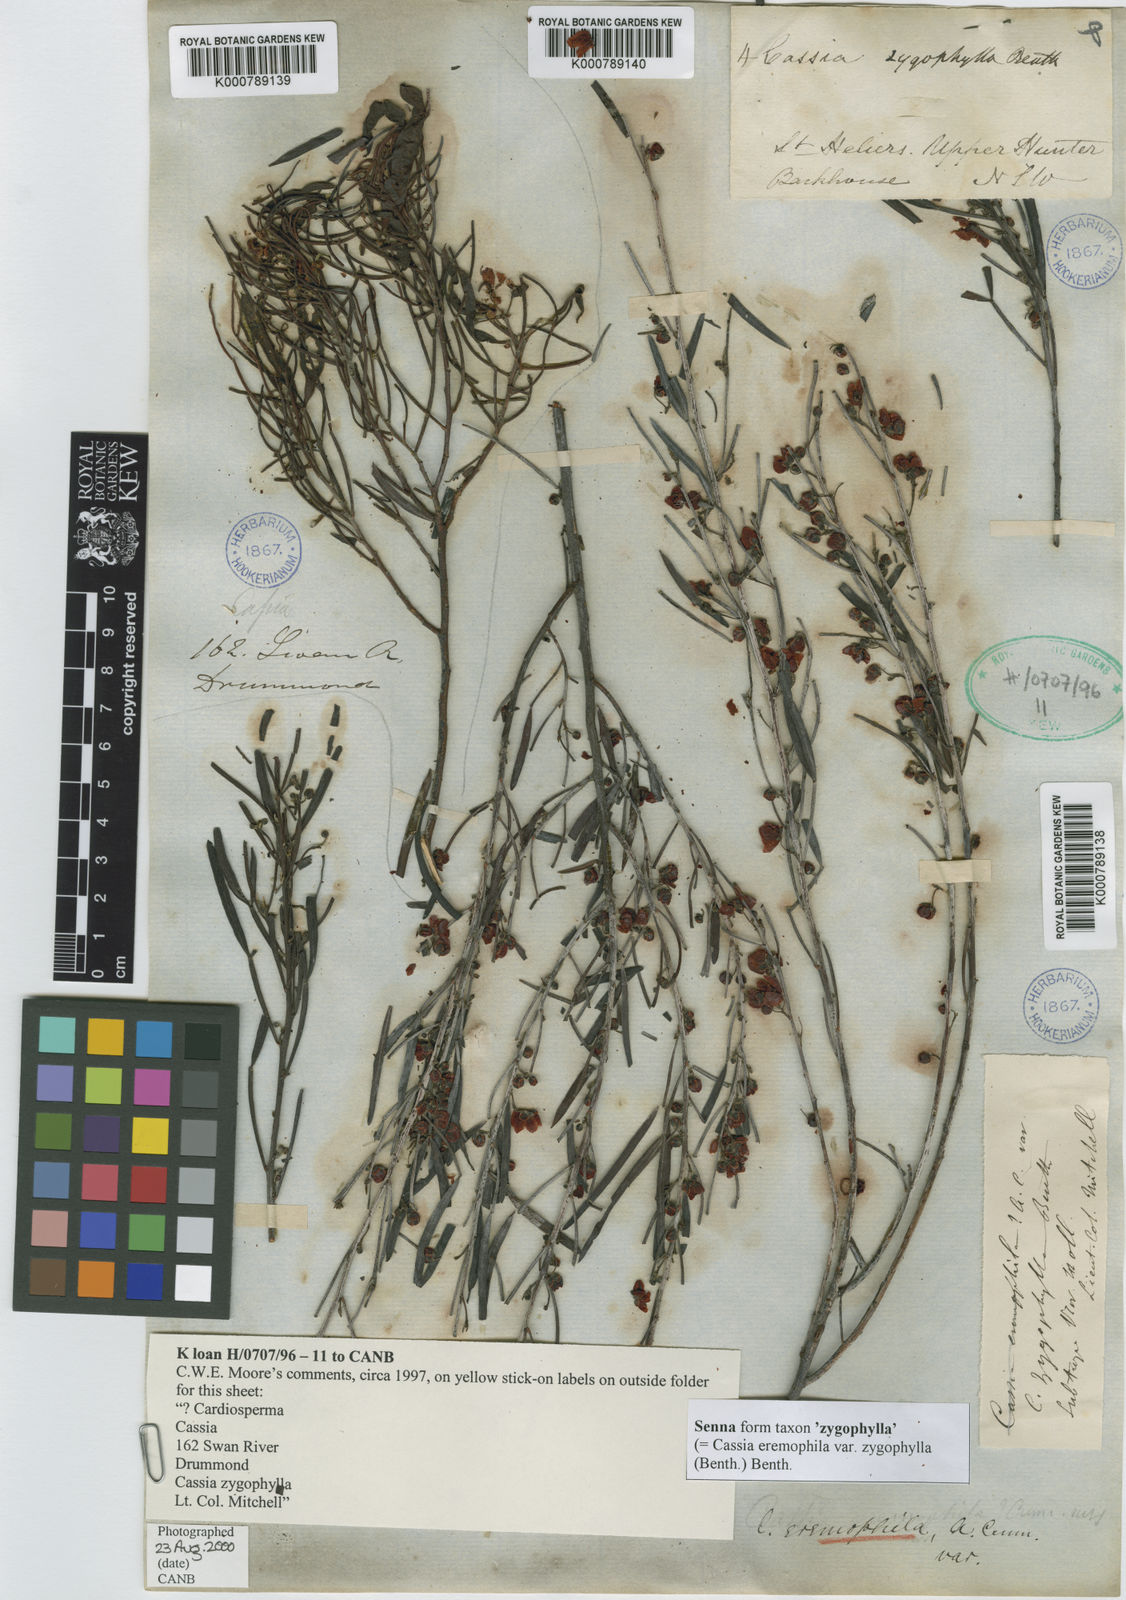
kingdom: Plantae
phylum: Tracheophyta
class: Magnoliopsida
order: Fabales
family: Fabaceae
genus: Senna
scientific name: Senna
